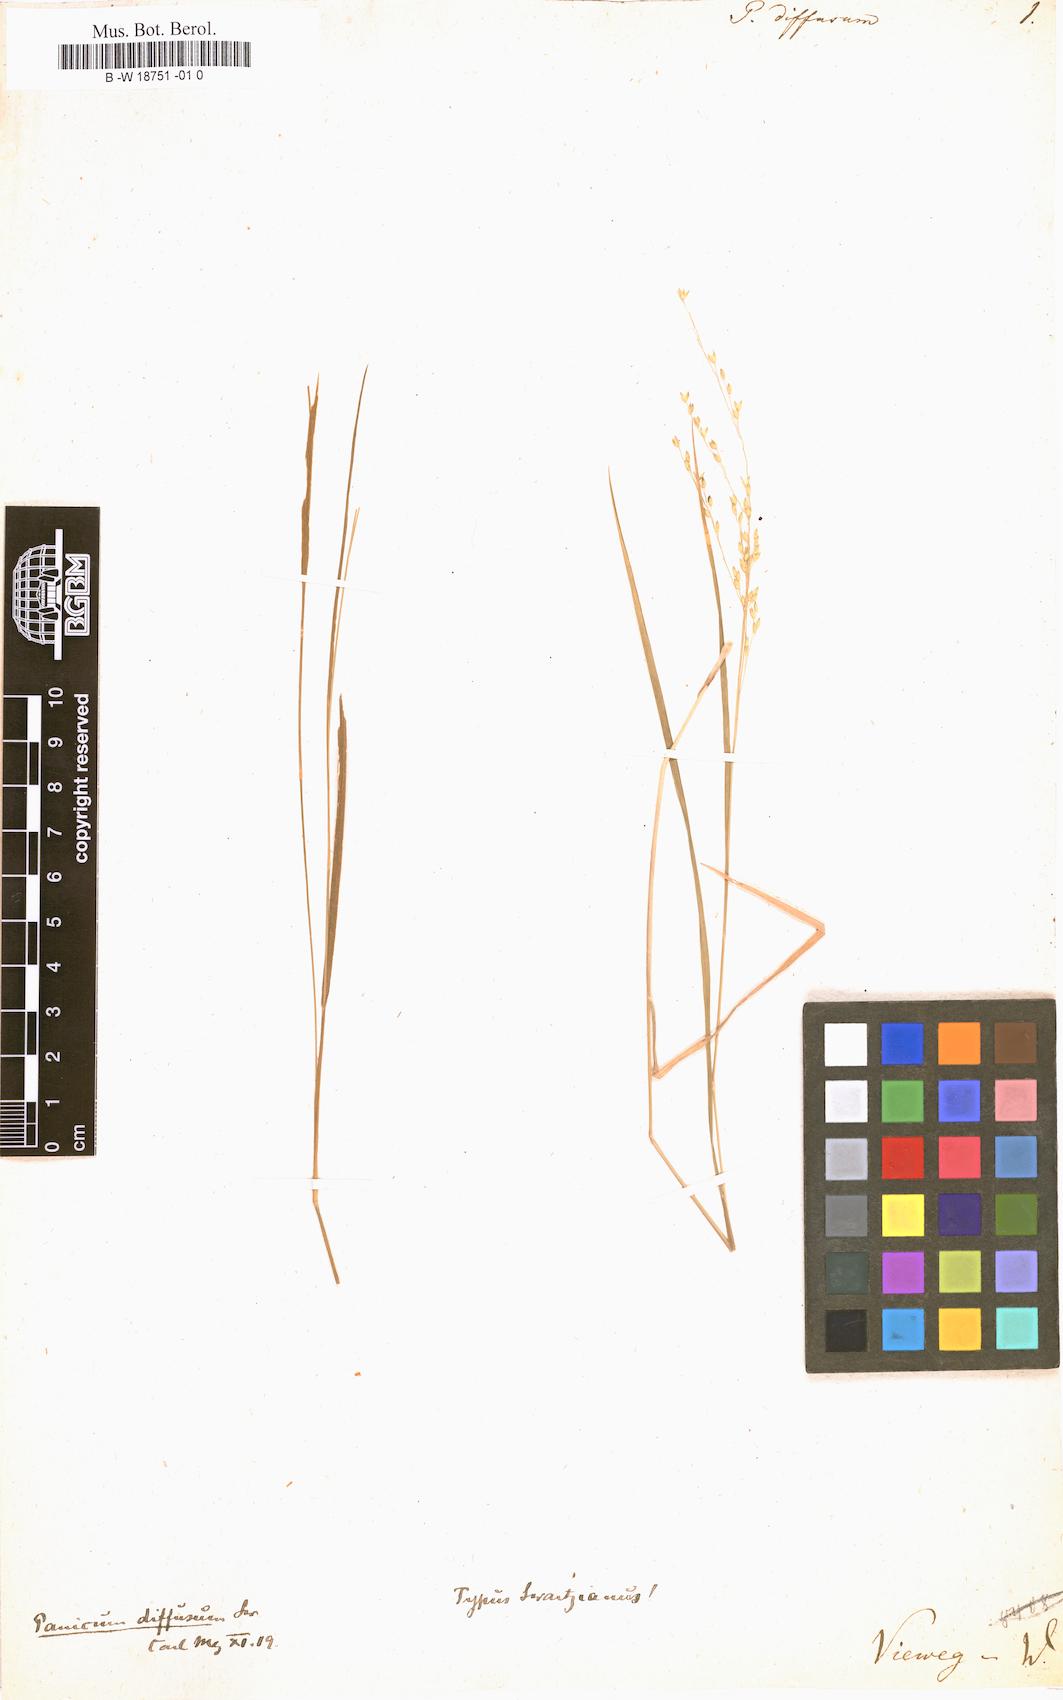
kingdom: Plantae
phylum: Tracheophyta
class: Liliopsida
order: Poales
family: Poaceae
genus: Panicum
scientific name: Panicum diffusum
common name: Spreading panicgrass
